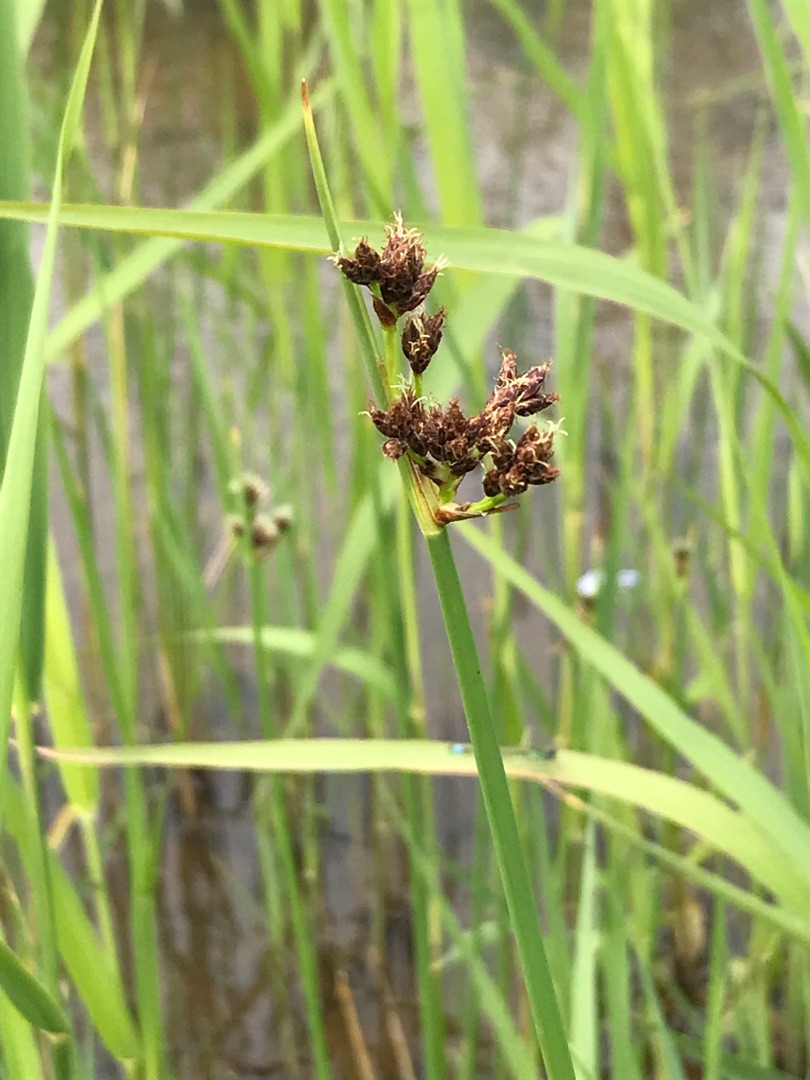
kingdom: Plantae
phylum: Tracheophyta
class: Liliopsida
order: Poales
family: Cyperaceae
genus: Schoenoplectus
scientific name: Schoenoplectus lacustris
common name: Sø-kogleaks
